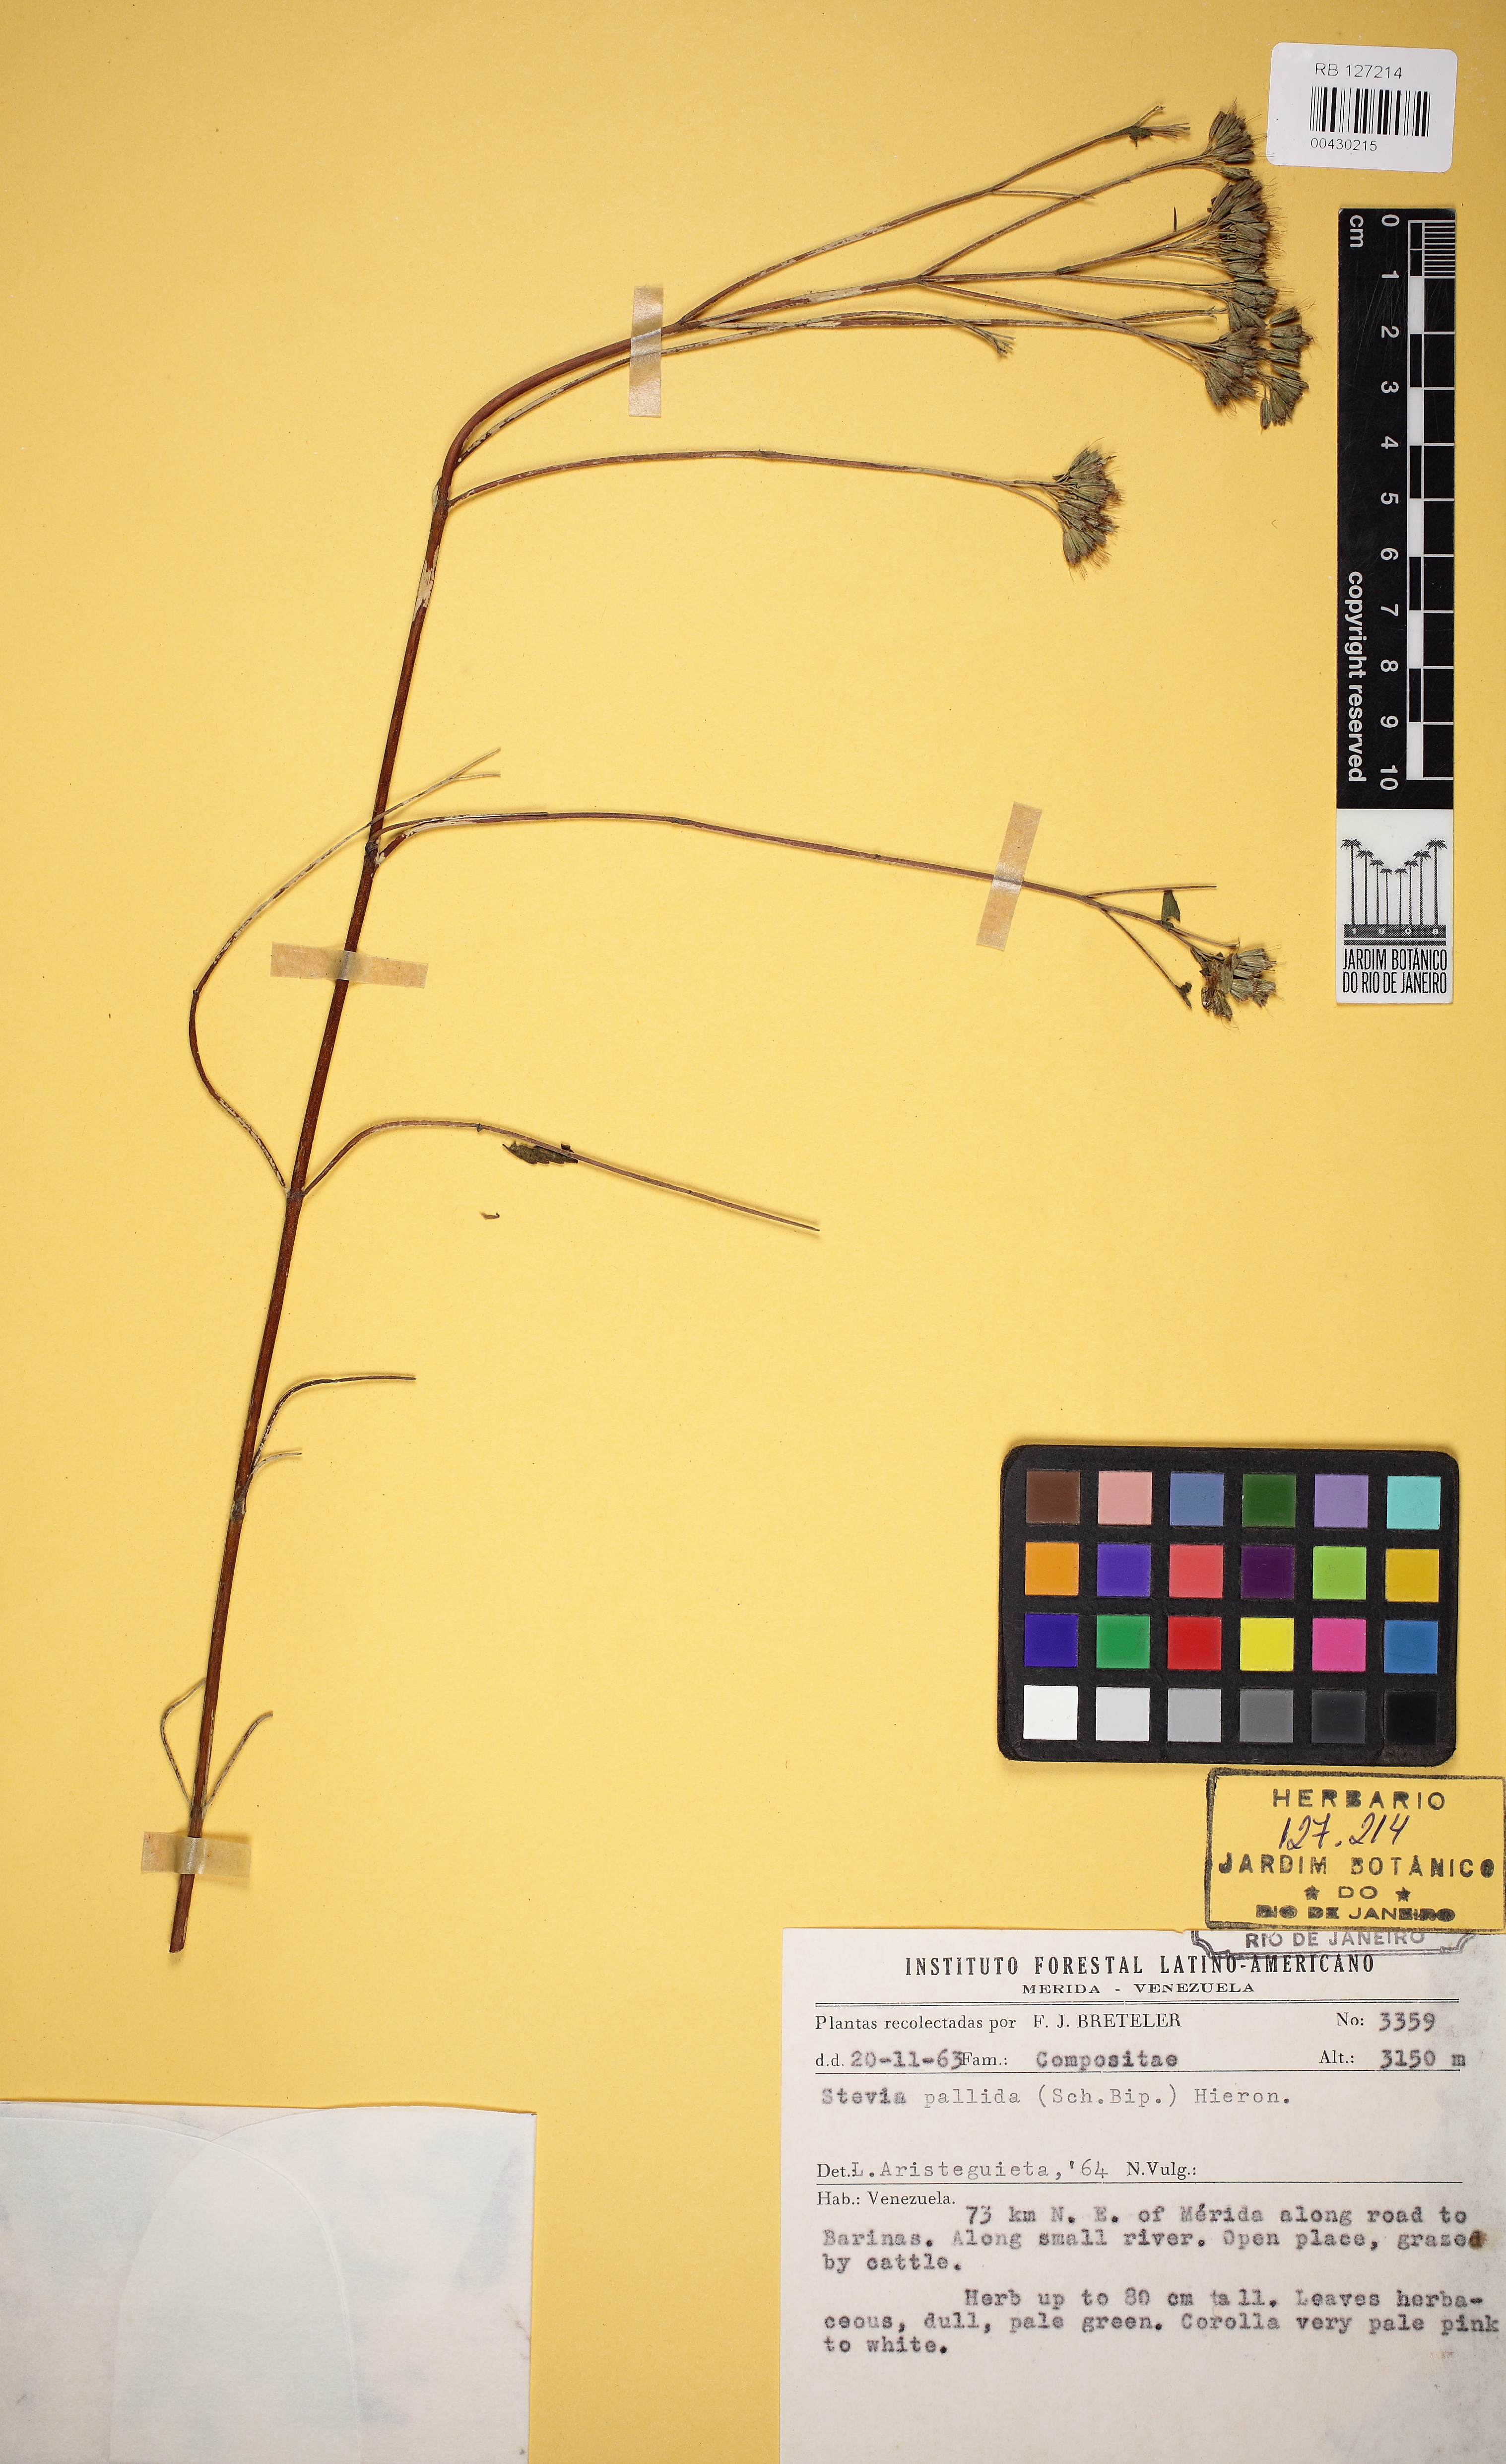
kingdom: Plantae
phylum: Tracheophyta
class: Magnoliopsida
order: Asterales
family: Asteraceae
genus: Stevia
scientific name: Stevia pallida
